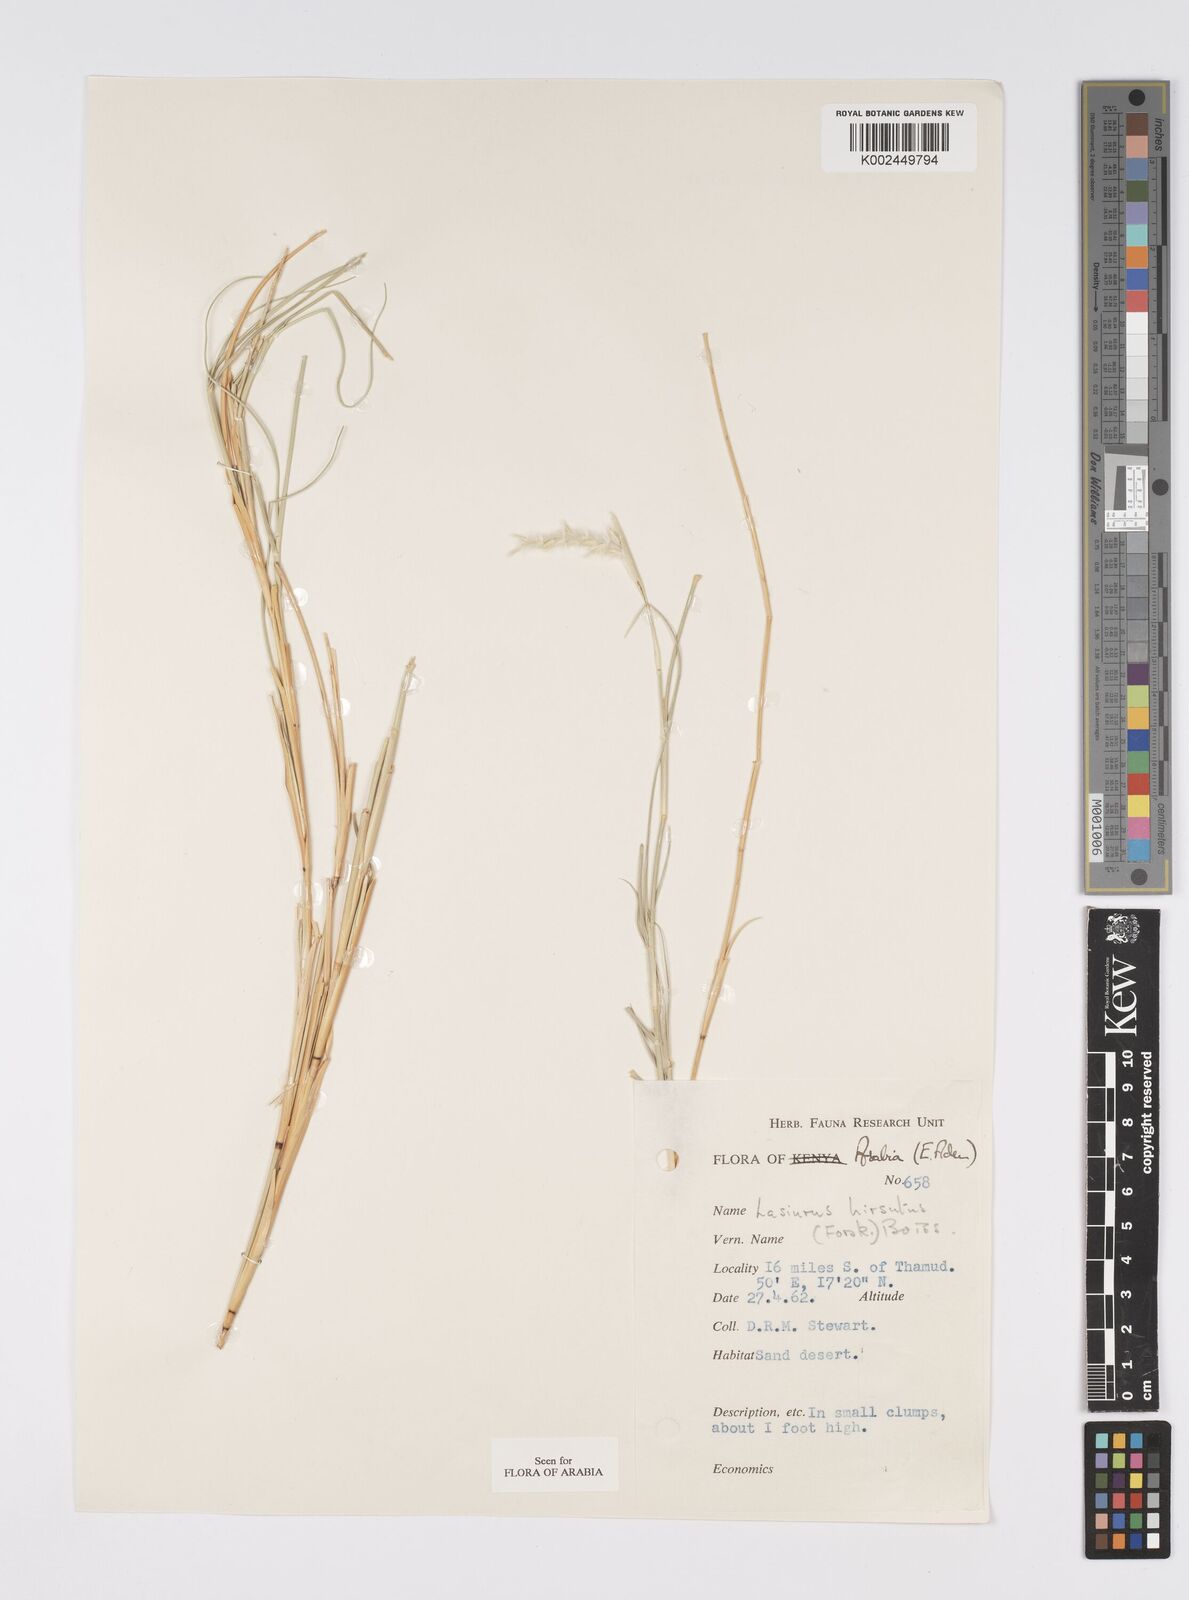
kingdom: Plantae
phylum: Tracheophyta
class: Liliopsida
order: Poales
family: Poaceae
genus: Lasiurus
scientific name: Lasiurus scindicus
